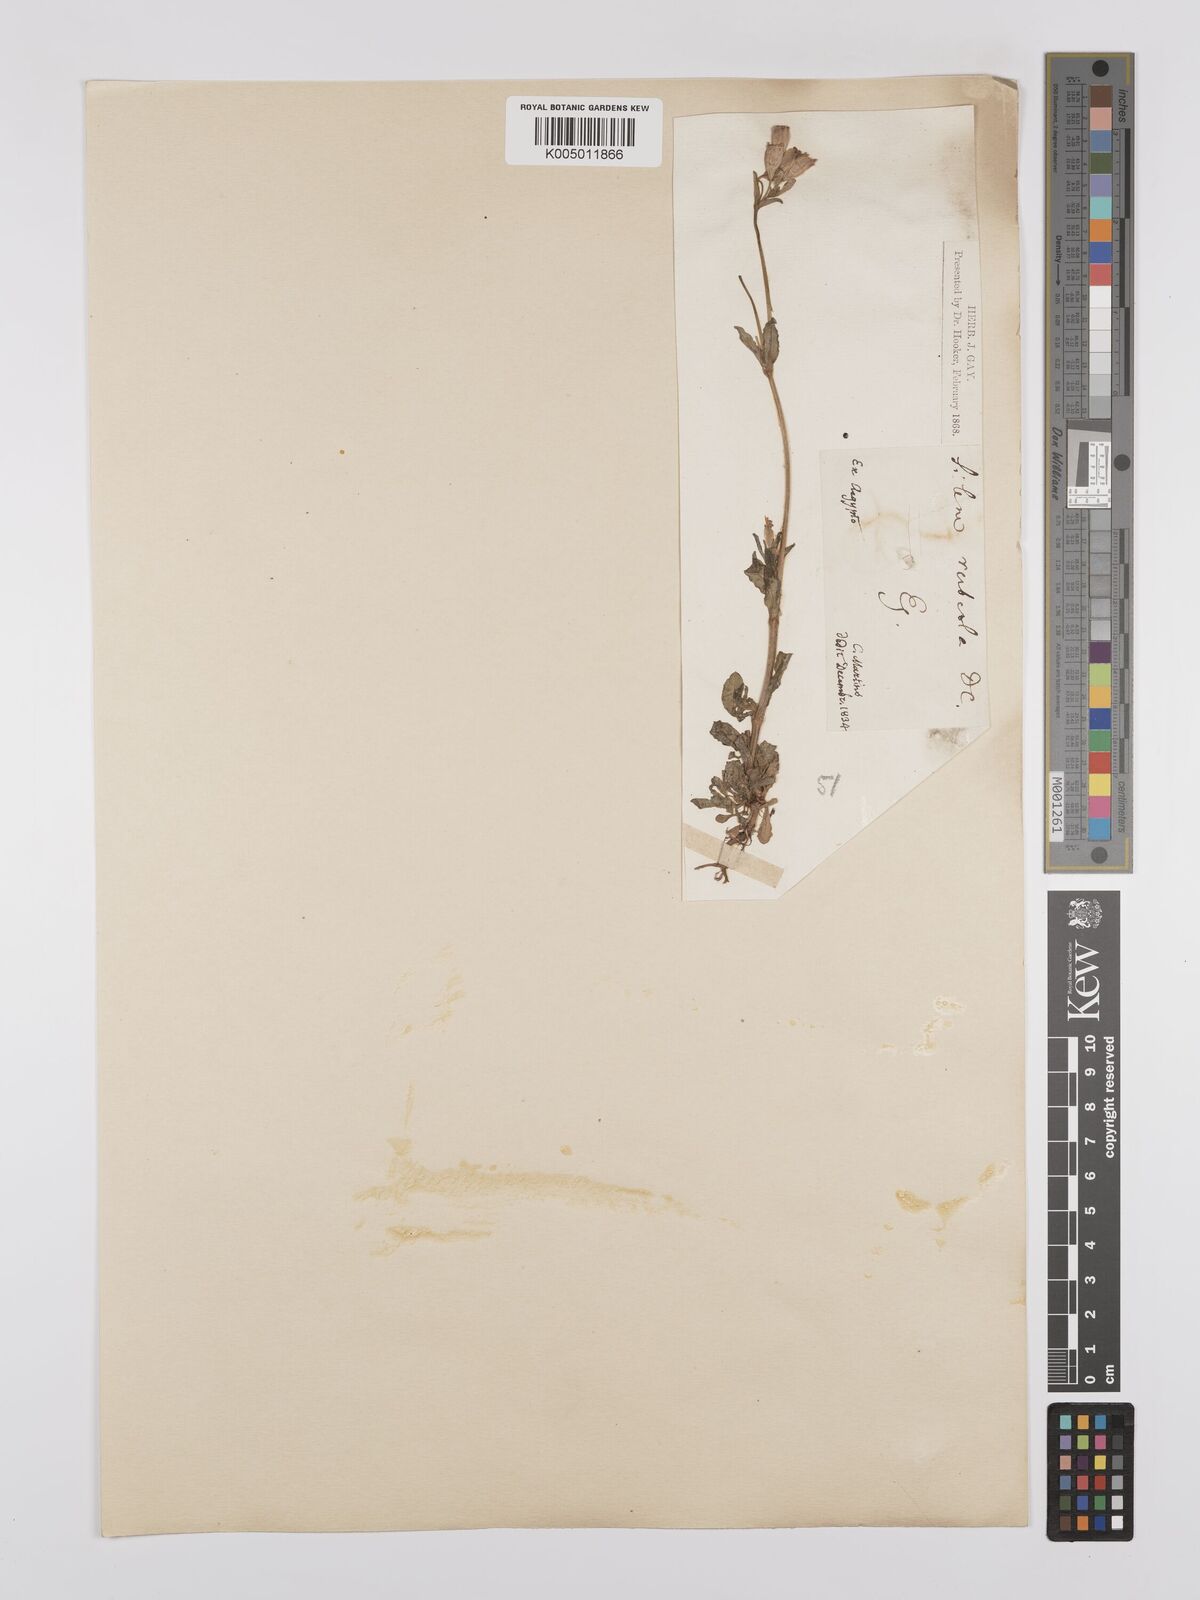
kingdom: Plantae
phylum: Tracheophyta
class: Magnoliopsida
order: Caryophyllales
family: Caryophyllaceae
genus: Silene
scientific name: Silene rubella
